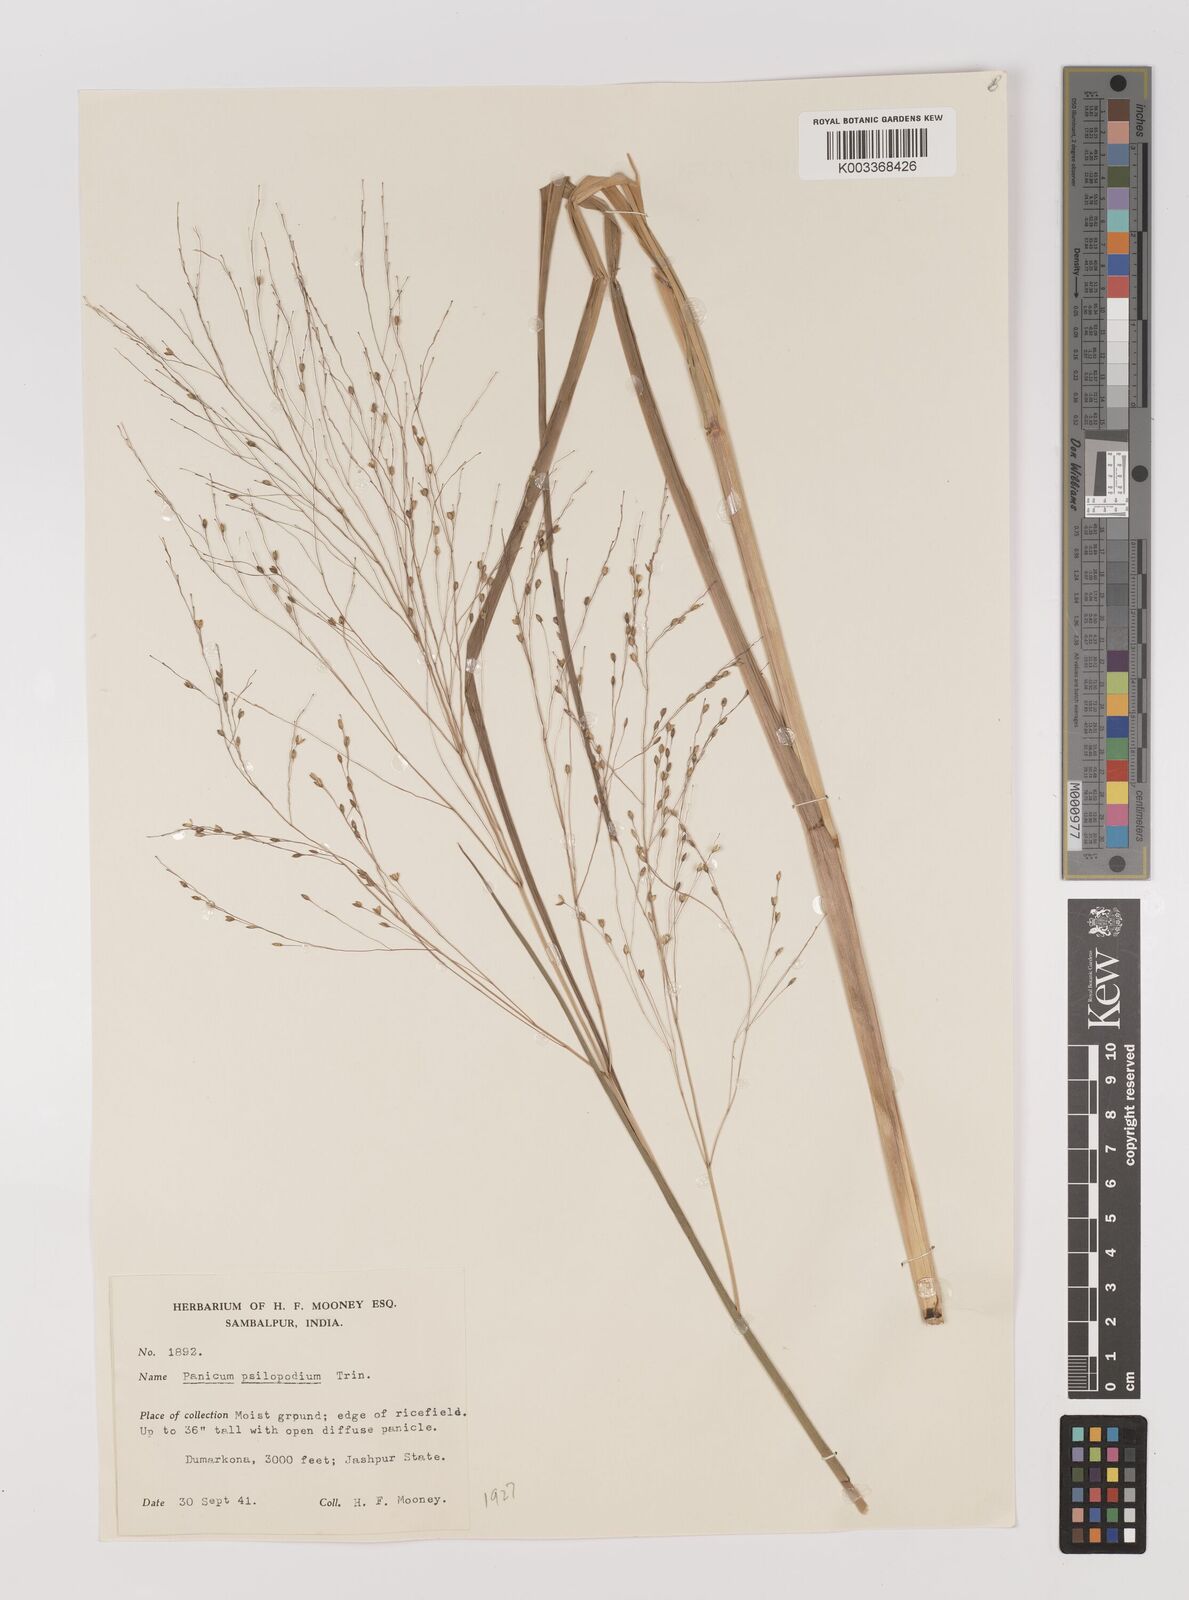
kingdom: Plantae
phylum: Tracheophyta
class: Liliopsida
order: Poales
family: Poaceae
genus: Panicum
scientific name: Panicum sumatrense
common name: Little millet
